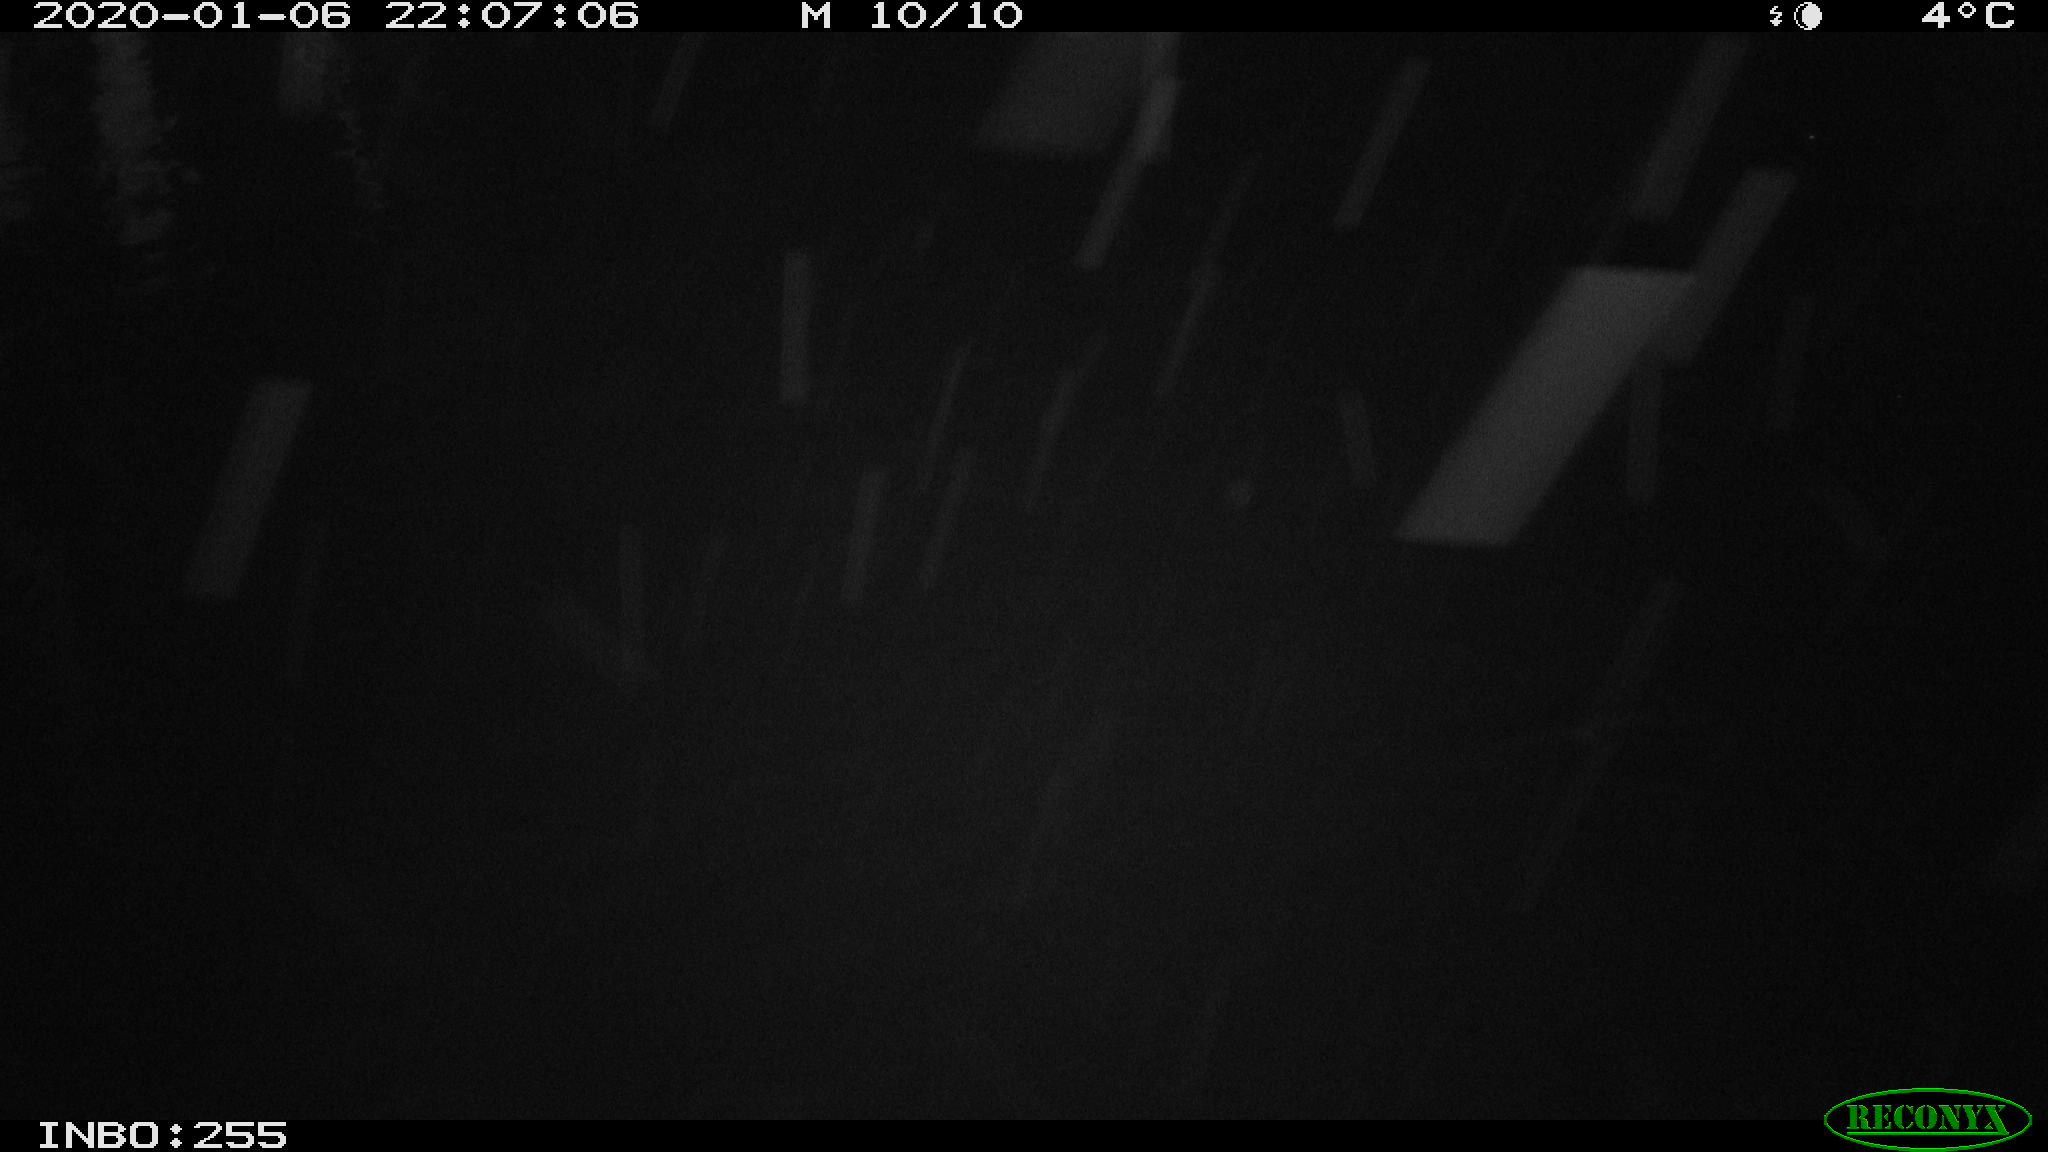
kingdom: Animalia
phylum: Chordata
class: Aves
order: Gruiformes
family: Rallidae
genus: Gallinula
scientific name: Gallinula chloropus
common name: Common moorhen
